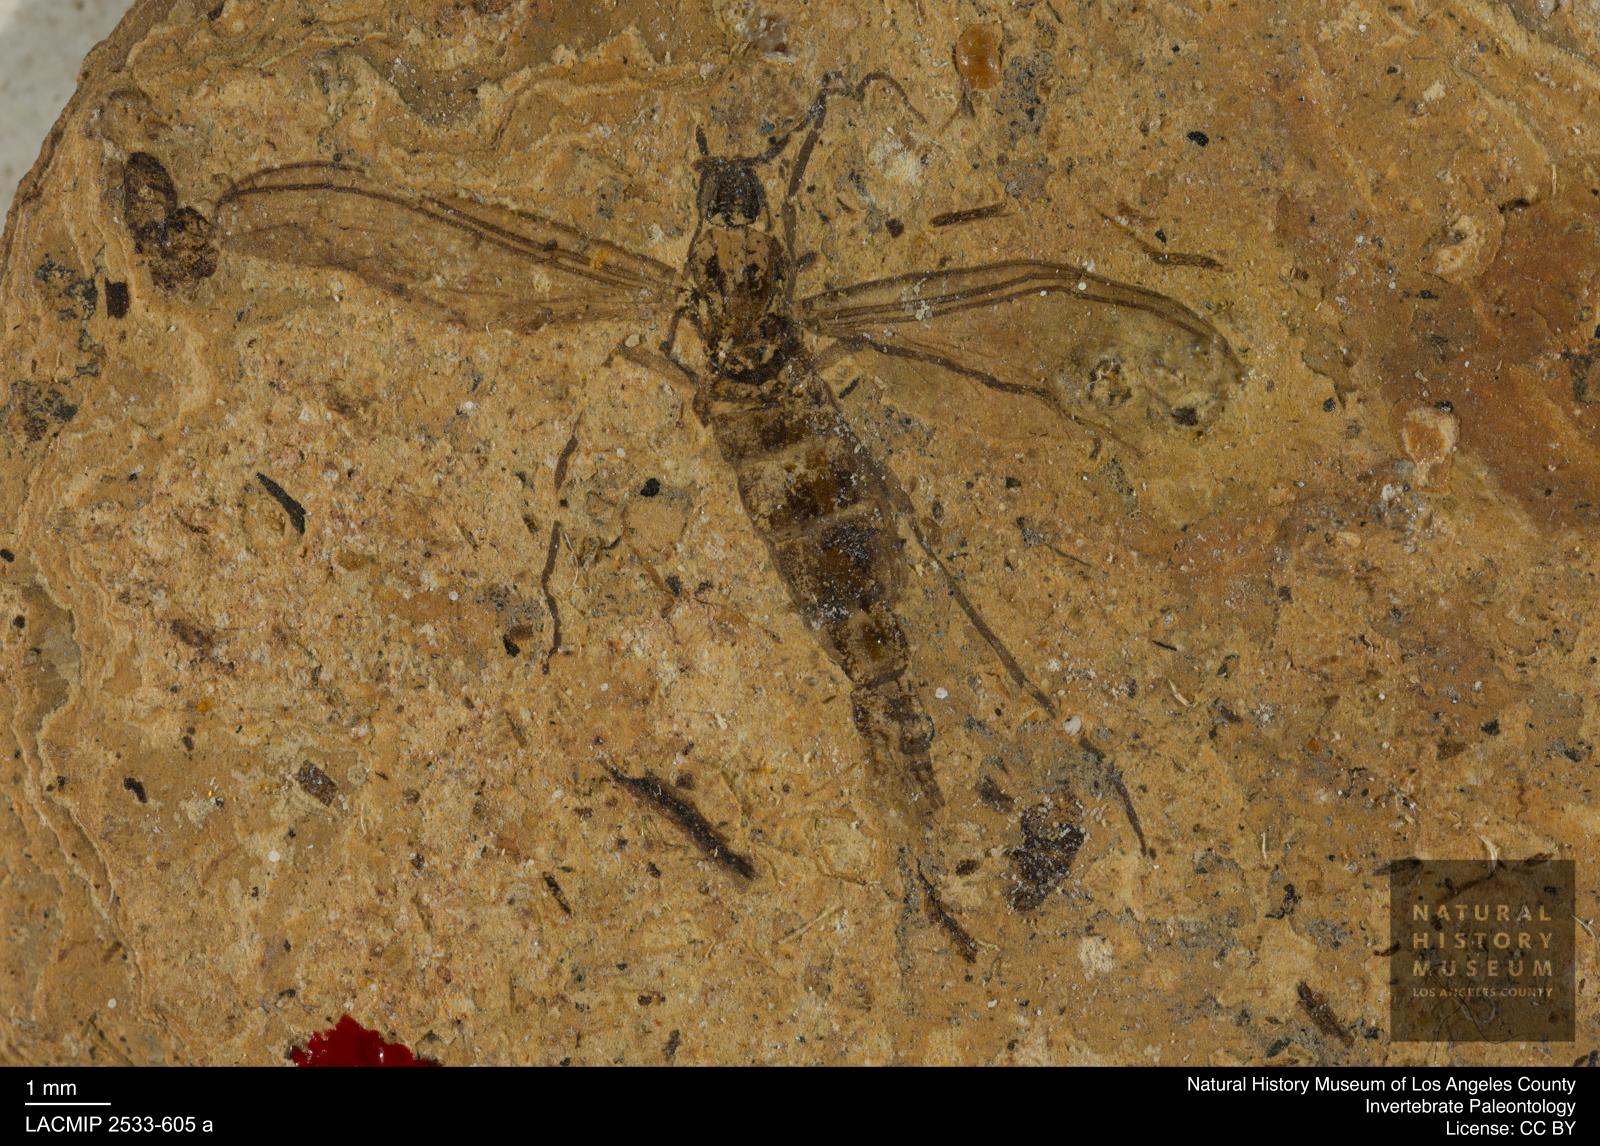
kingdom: Animalia
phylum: Arthropoda
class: Insecta
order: Diptera
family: Sciaridae
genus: Sciara
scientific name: Sciara pelidua
